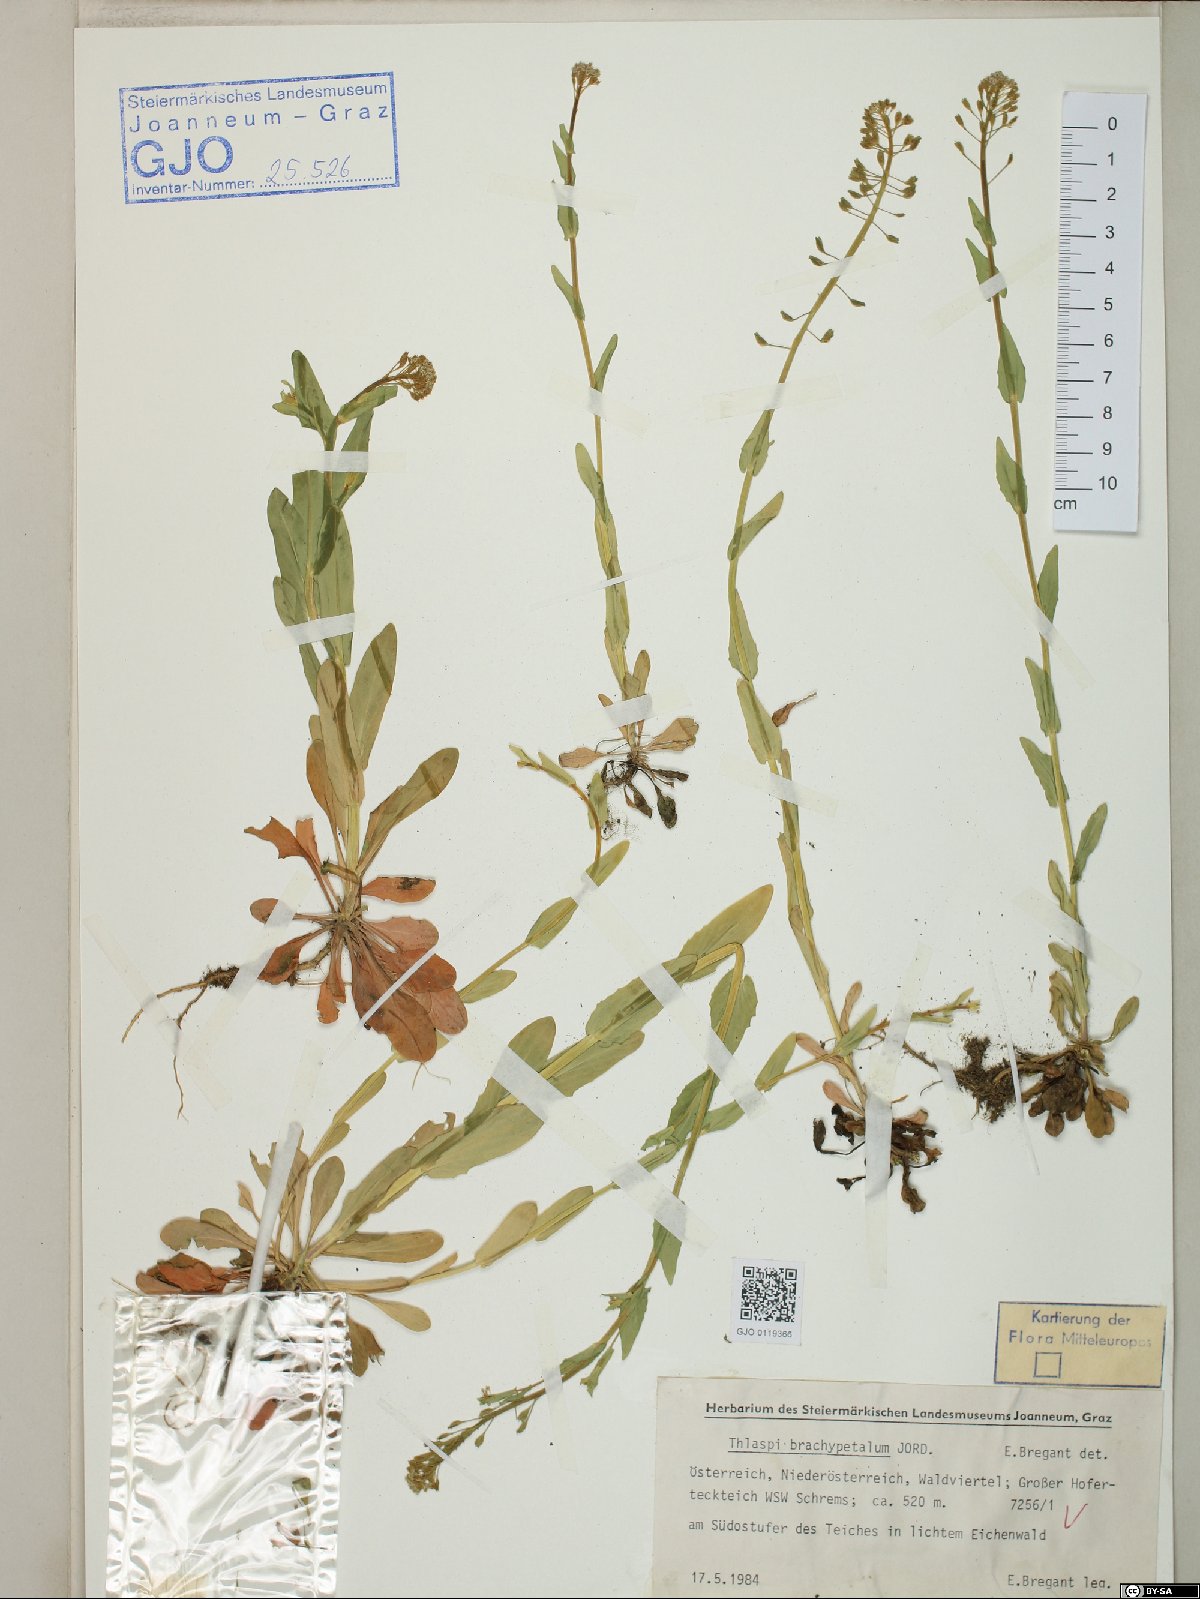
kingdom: Plantae
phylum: Tracheophyta
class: Magnoliopsida
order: Brassicales
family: Brassicaceae
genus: Noccaea
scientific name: Noccaea brachypetala
